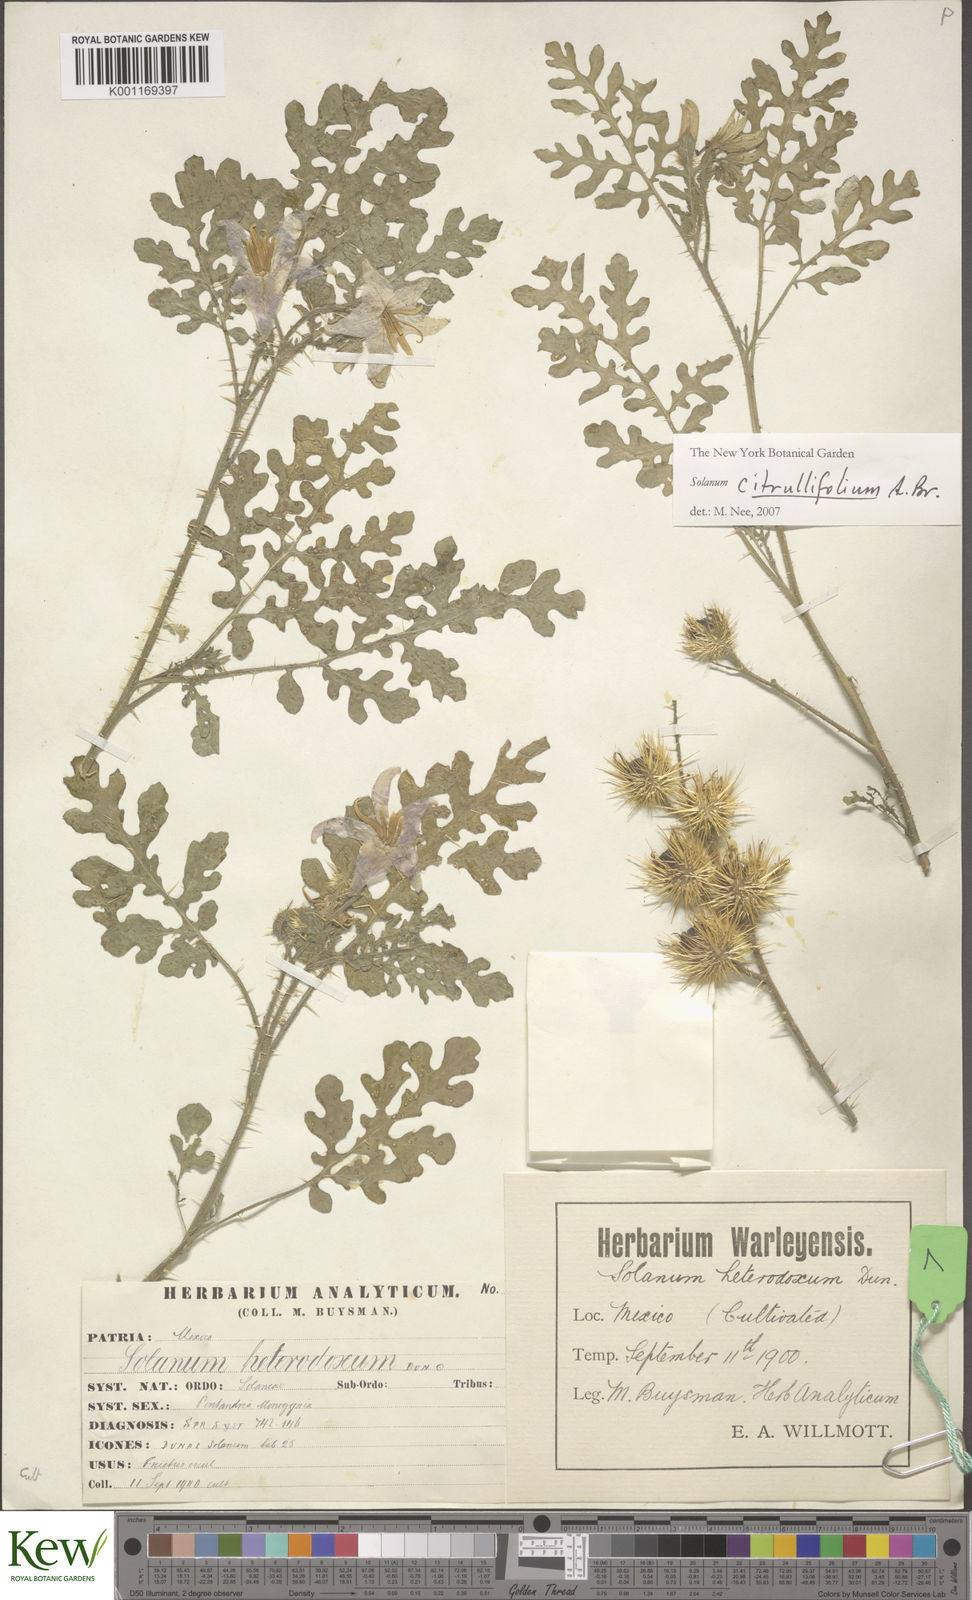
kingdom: Plantae
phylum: Tracheophyta
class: Magnoliopsida
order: Solanales
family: Solanaceae
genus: Solanum
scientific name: Solanum citrullifolium
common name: Melon-leaf nightshade
